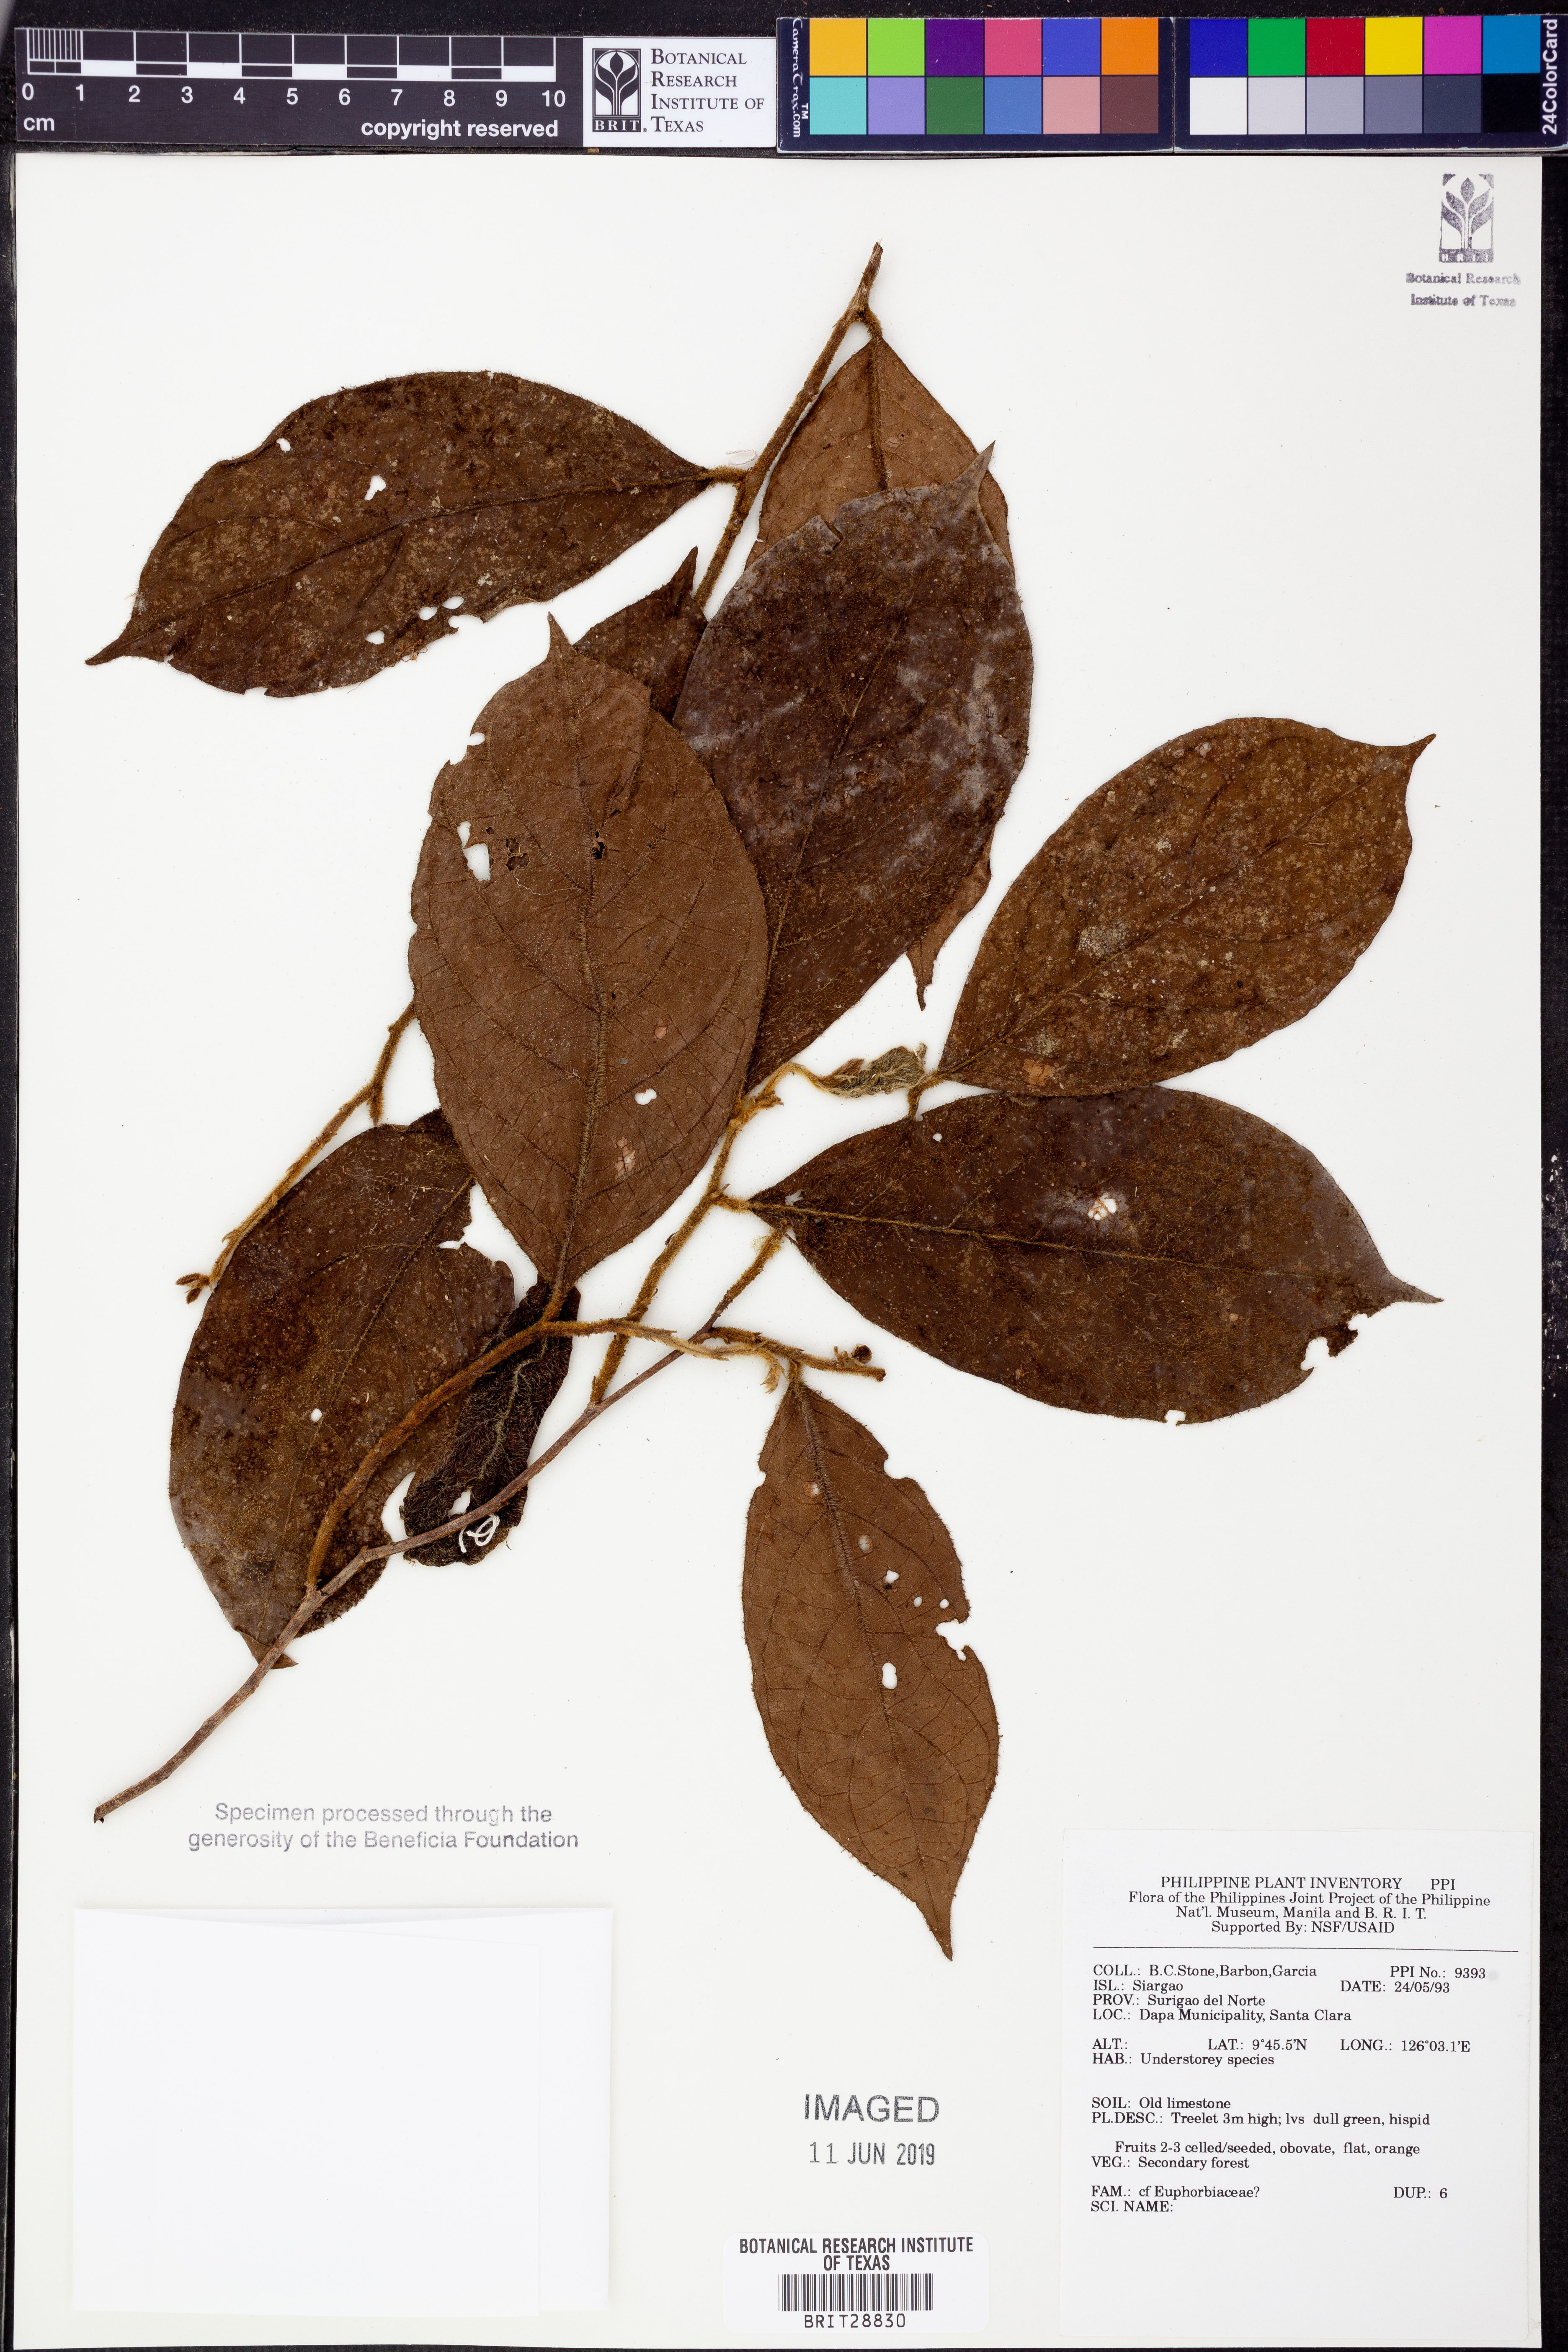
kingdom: Plantae
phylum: Tracheophyta
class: Magnoliopsida
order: Malpighiales
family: Euphorbiaceae
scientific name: Euphorbiaceae
